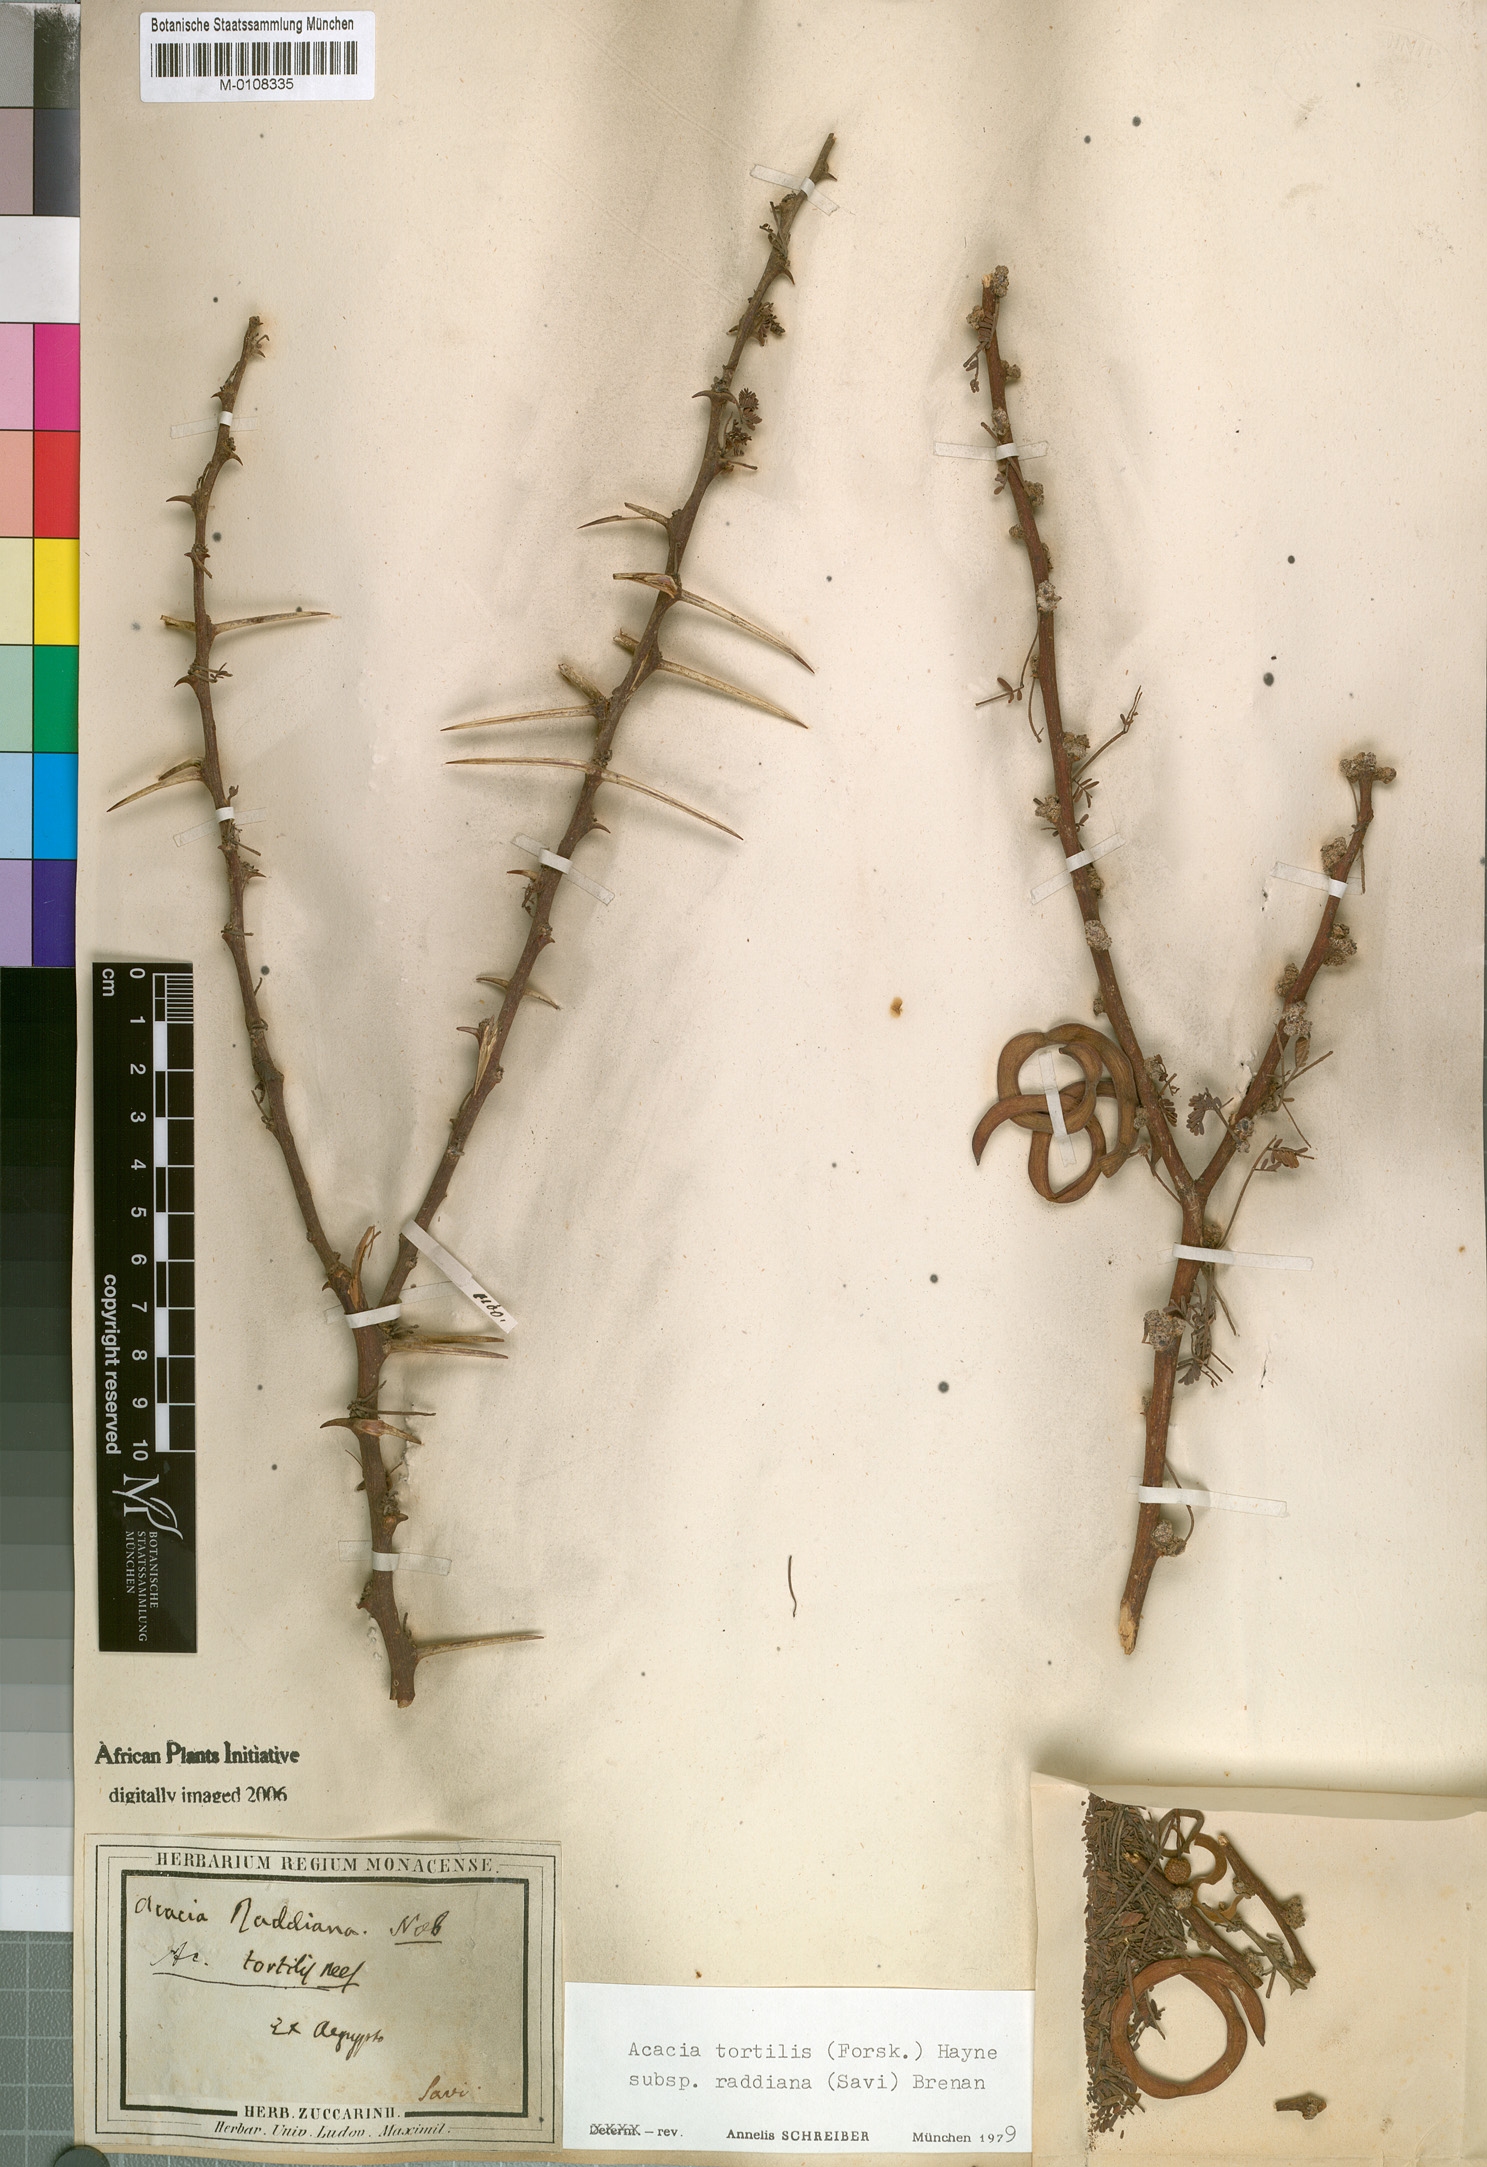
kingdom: Plantae
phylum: Tracheophyta
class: Magnoliopsida
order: Fabales
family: Fabaceae
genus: Vachellia
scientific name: Vachellia tortilis
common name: Umbrella thorn acacia
